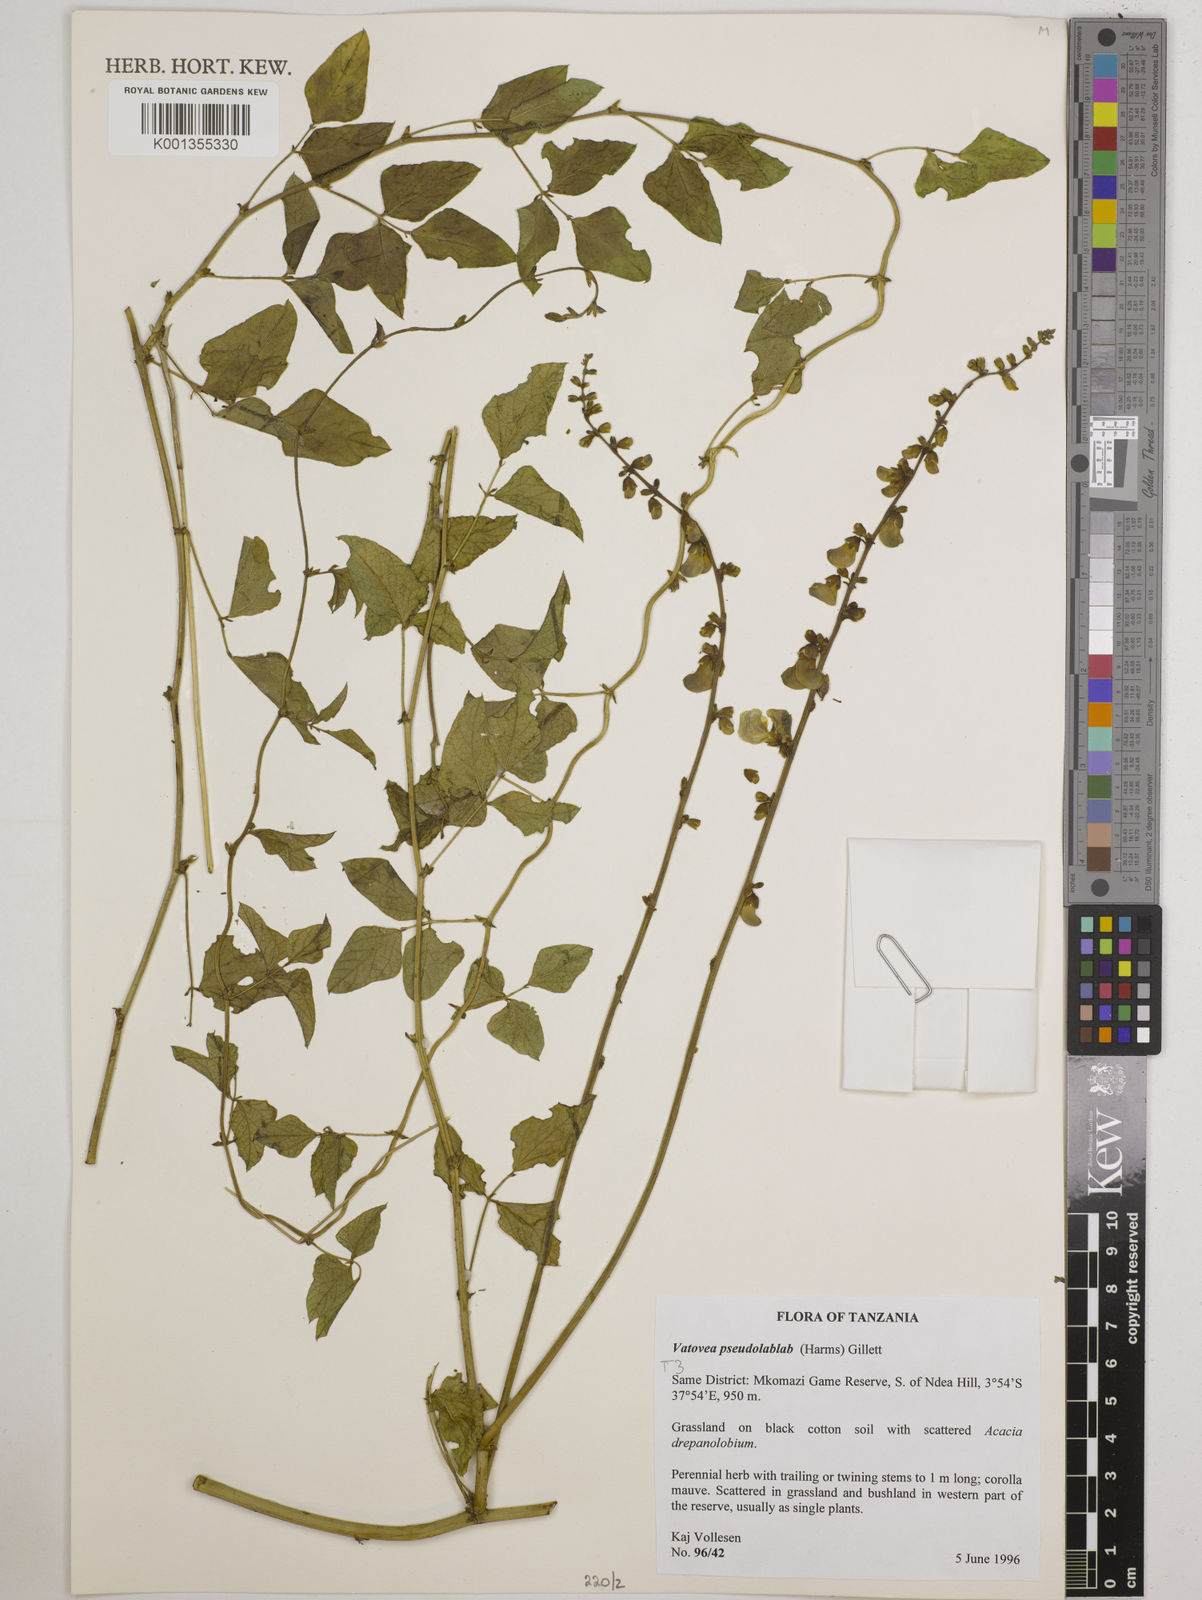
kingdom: Plantae
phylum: Tracheophyta
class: Magnoliopsida
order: Fabales
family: Fabaceae
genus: Vatovaea
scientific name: Vatovaea pseudolablab
